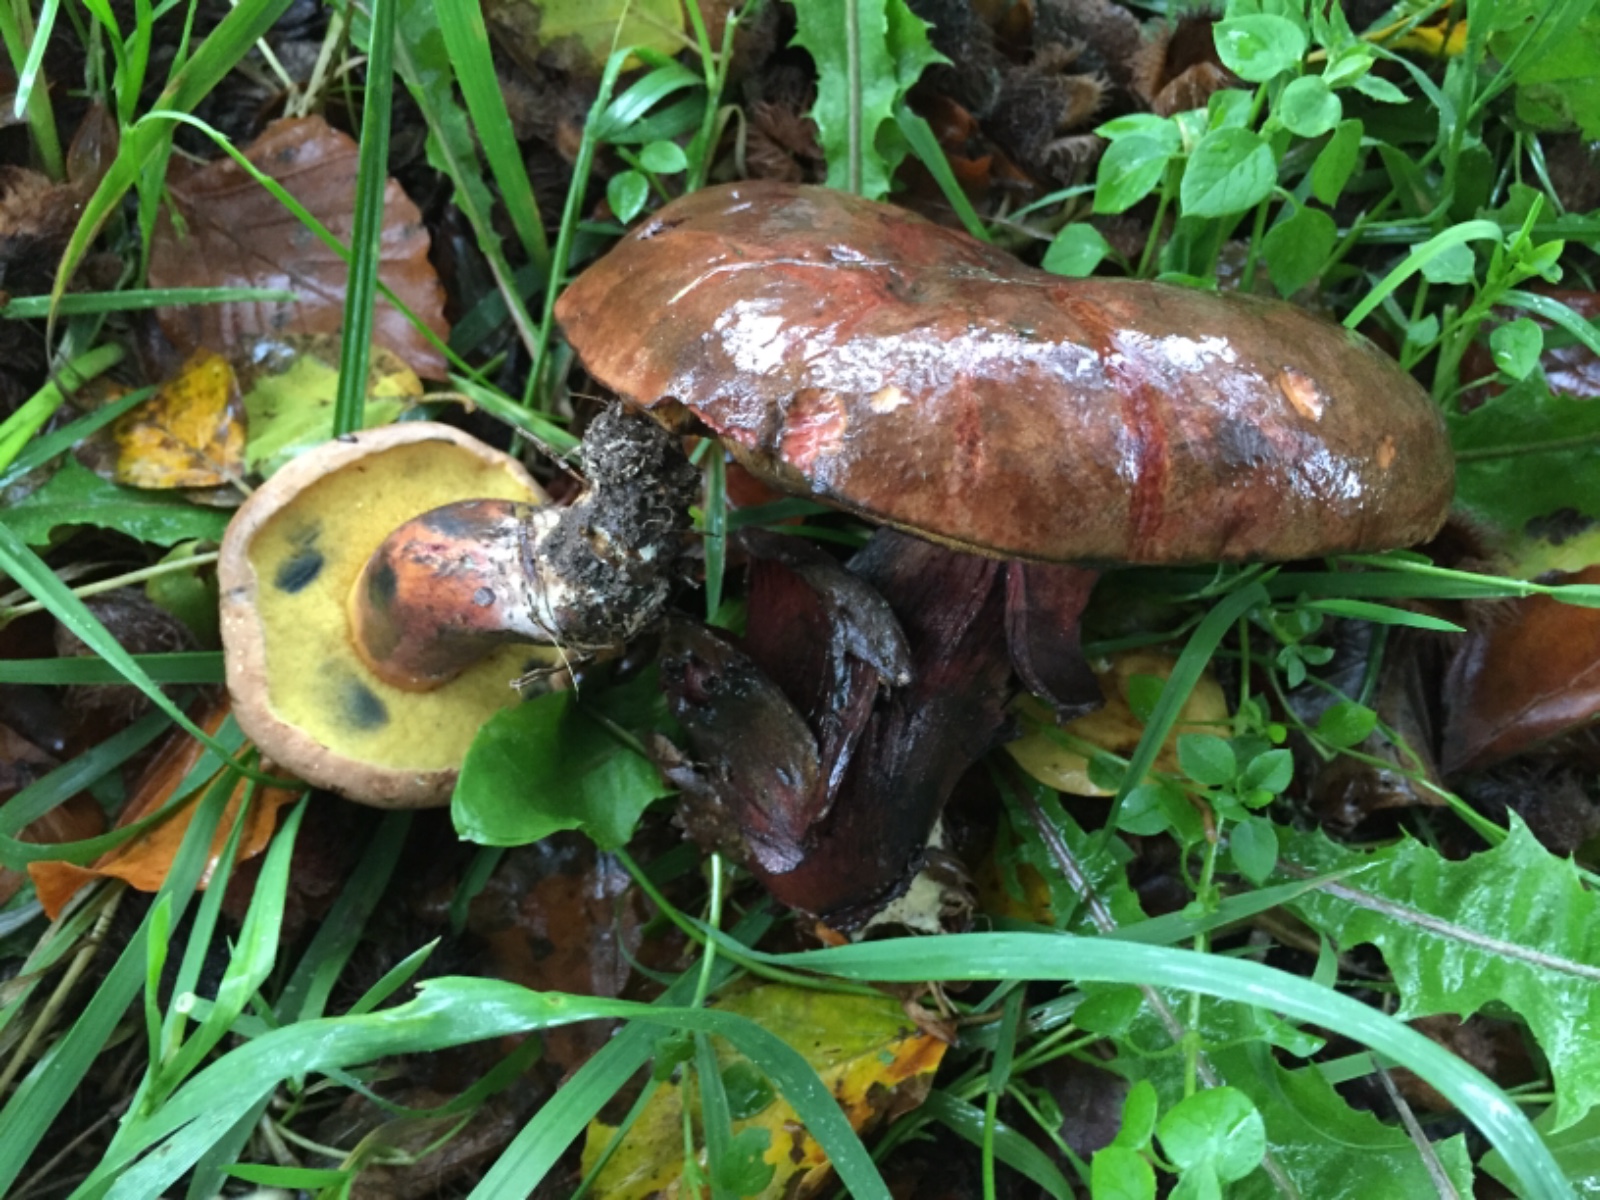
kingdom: Fungi
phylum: Basidiomycota
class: Agaricomycetes
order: Boletales
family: Boletaceae
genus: Cyanoboletus
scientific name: Cyanoboletus pulverulentus
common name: sortblånende rørhat
